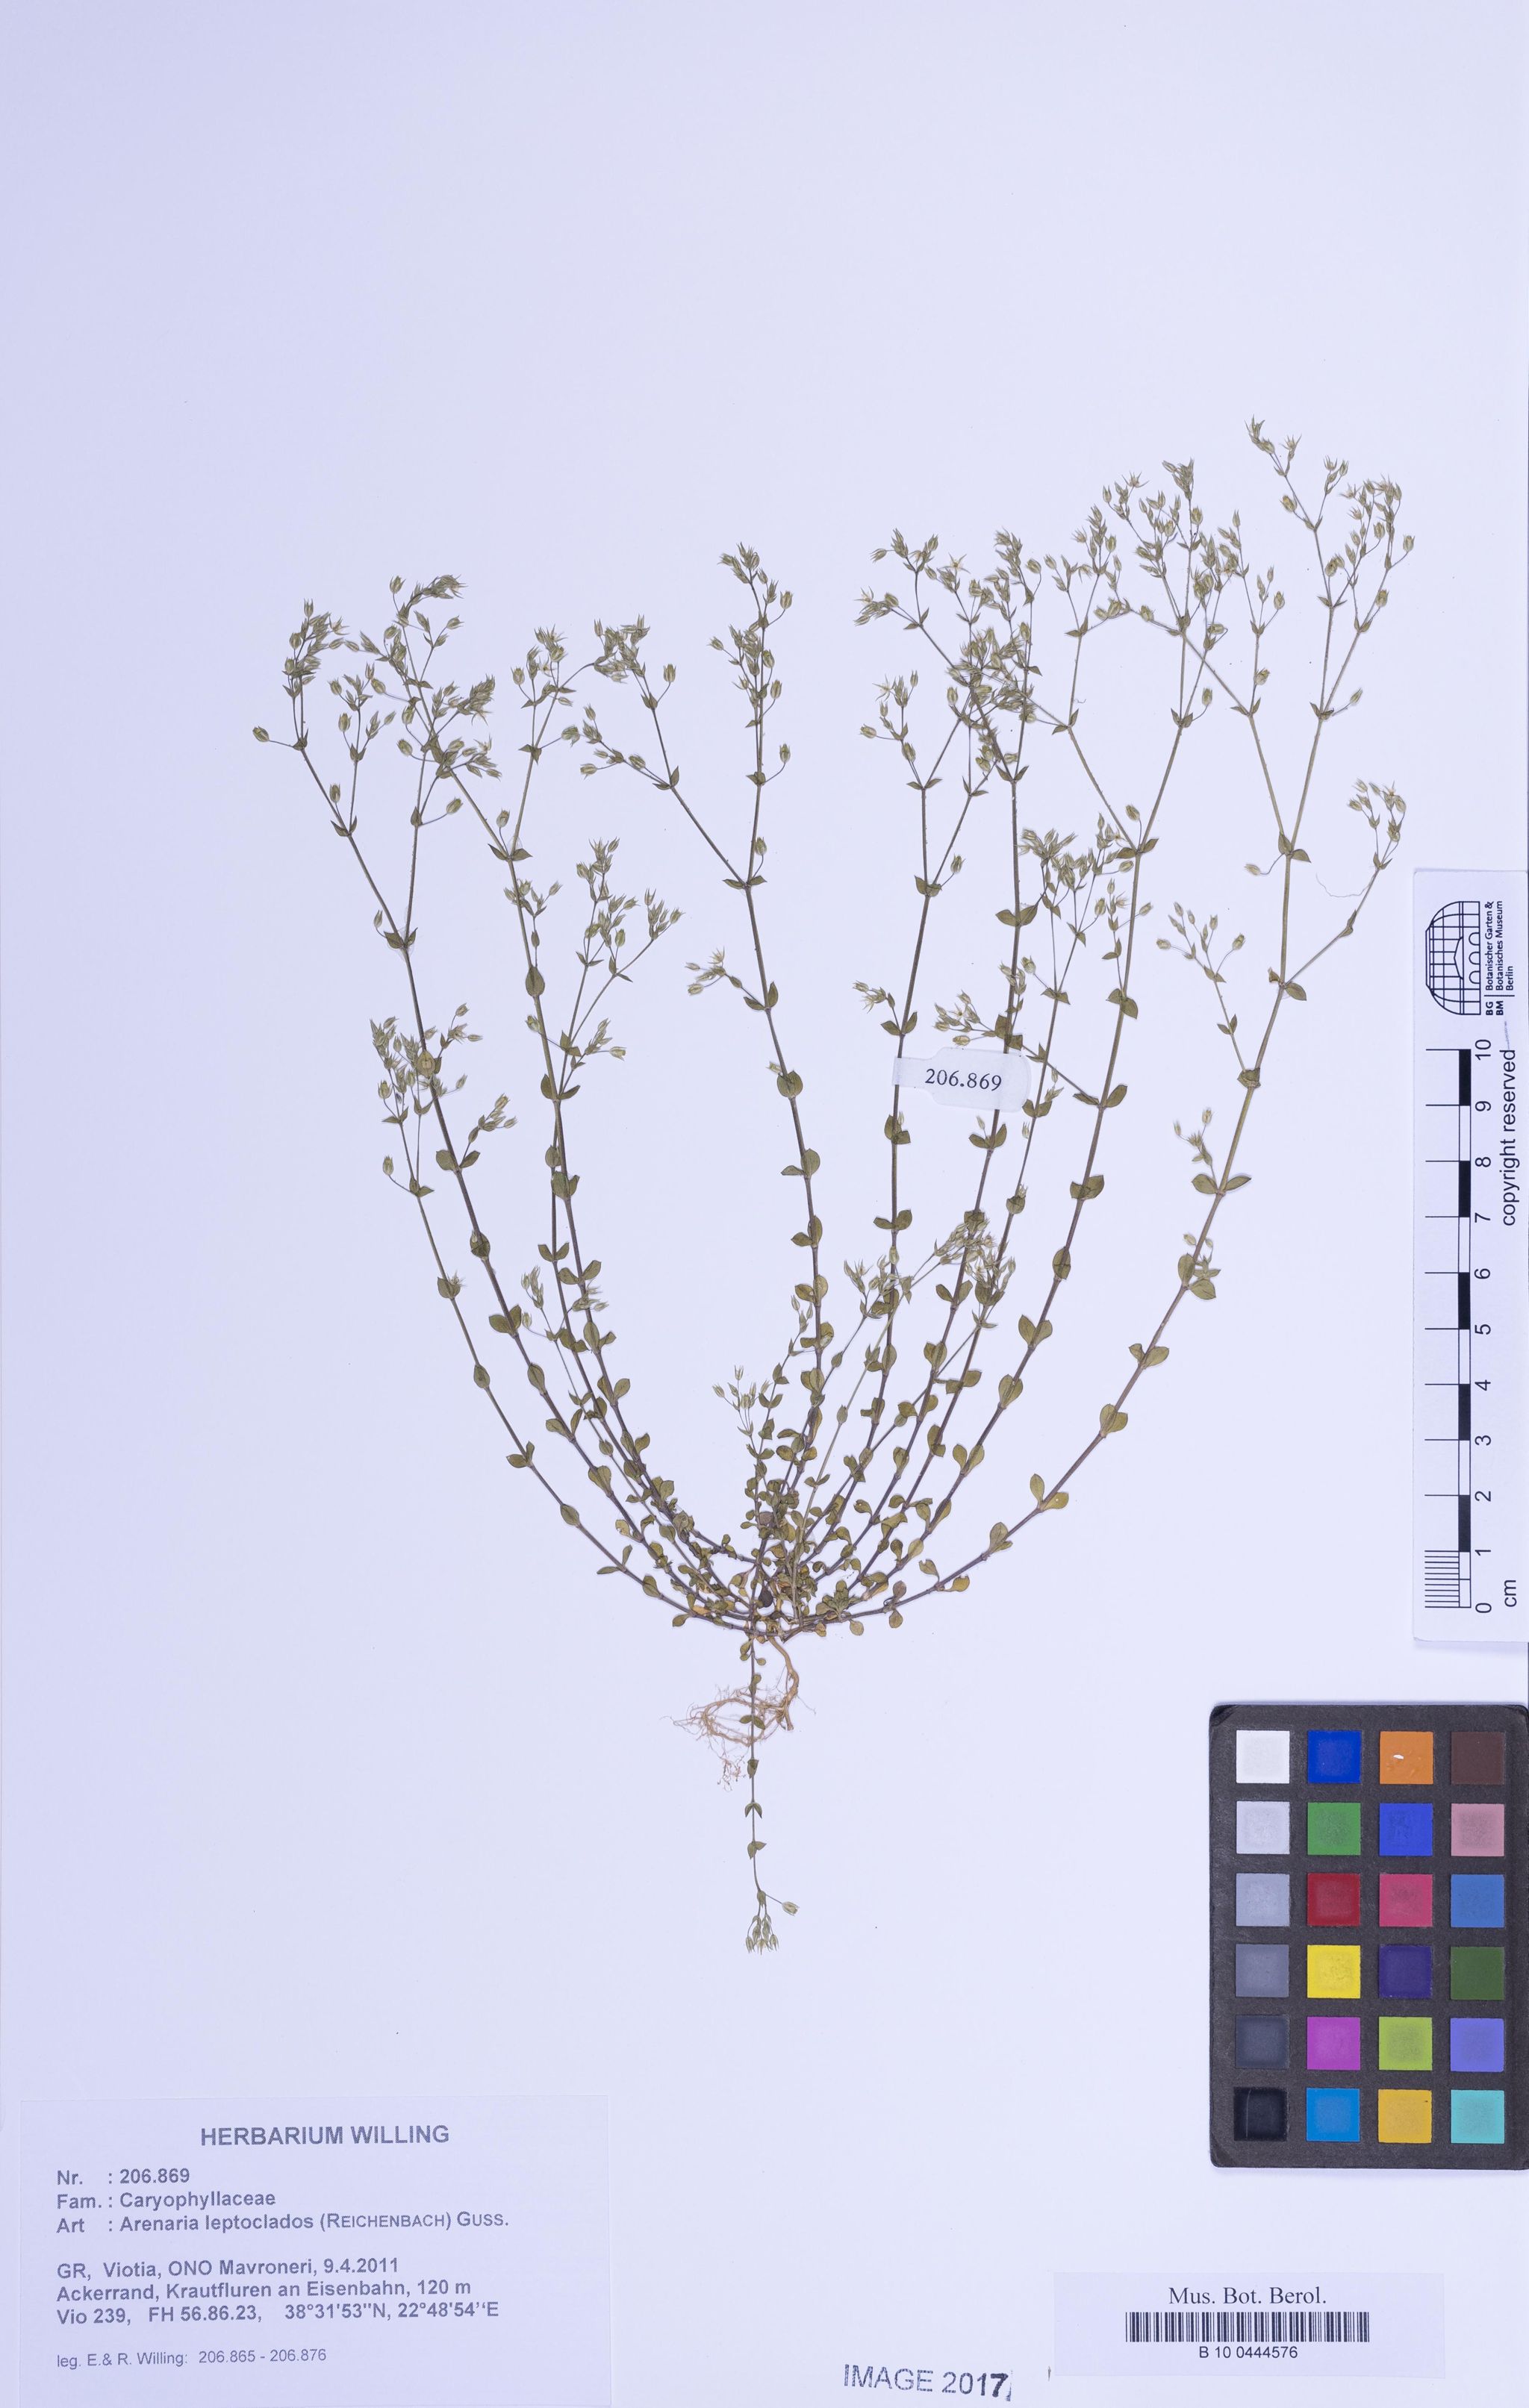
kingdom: Plantae
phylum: Tracheophyta
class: Magnoliopsida
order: Caryophyllales
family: Caryophyllaceae
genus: Arenaria
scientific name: Arenaria leptoclados
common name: Thyme-leaved sandwort
